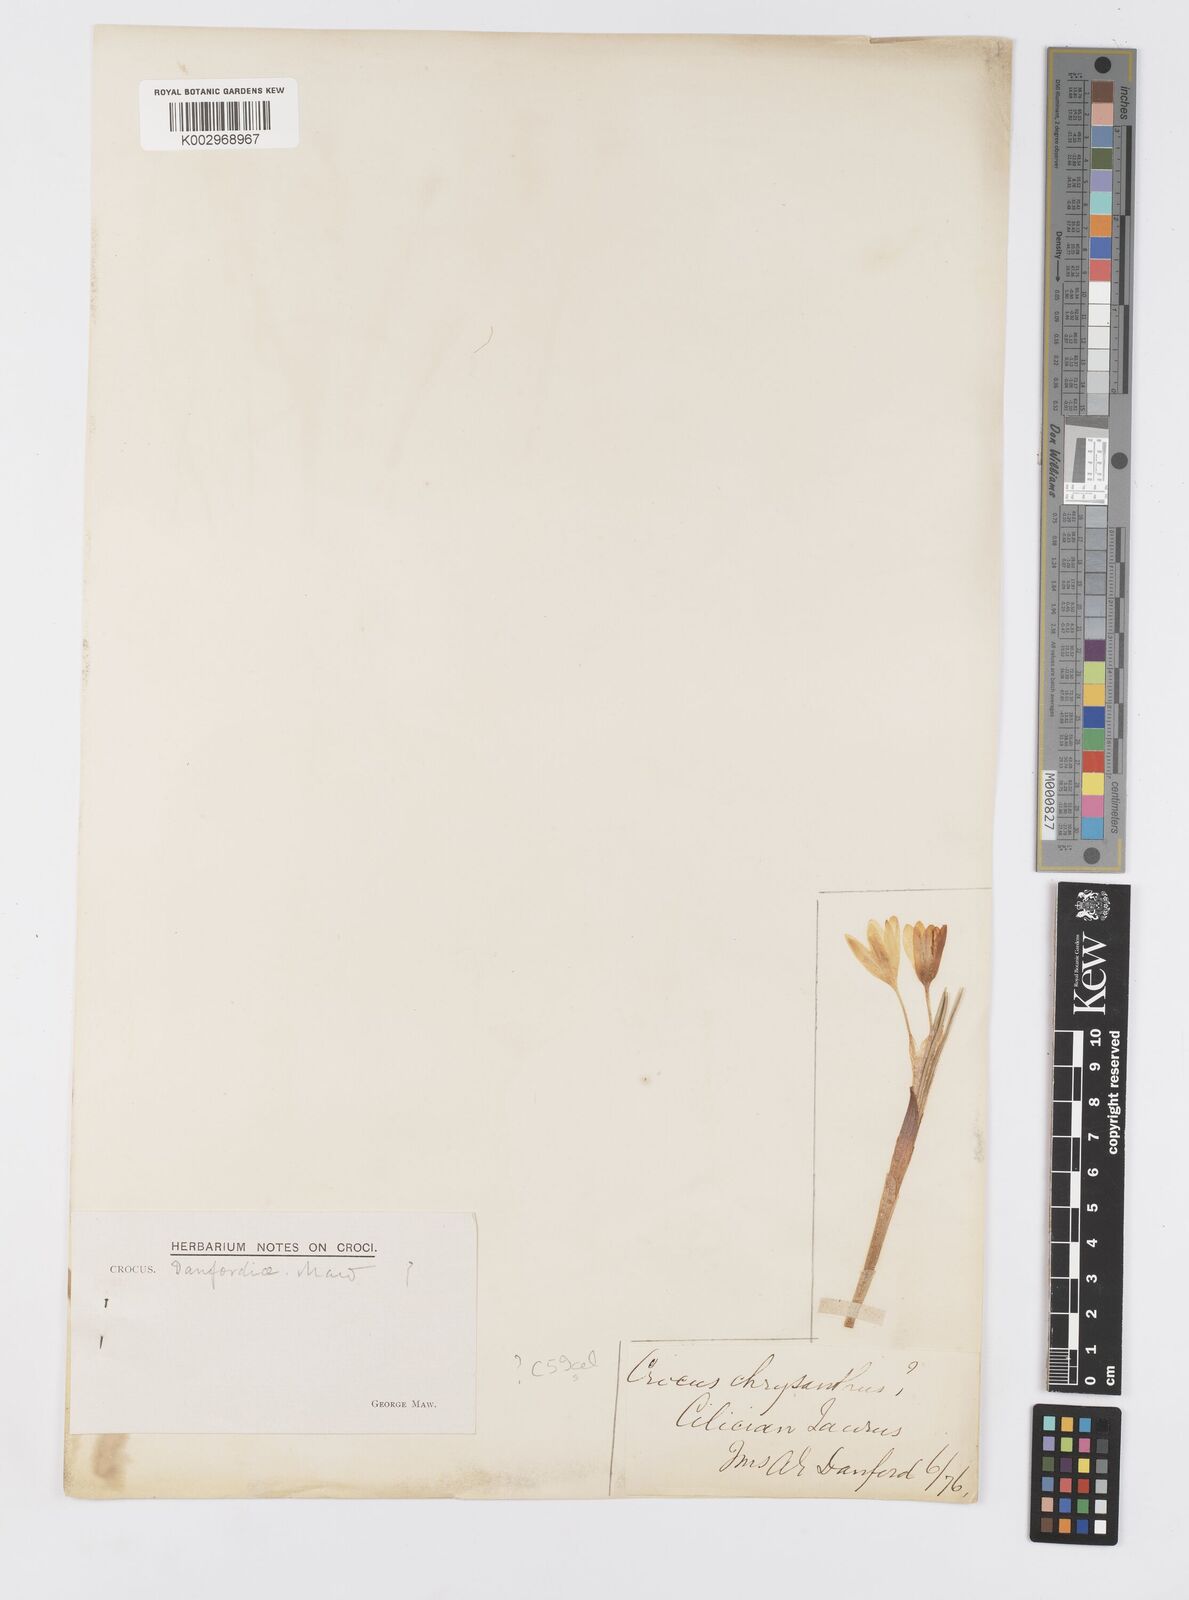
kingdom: Plantae
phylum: Tracheophyta
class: Liliopsida
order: Asparagales
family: Iridaceae
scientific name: Iridaceae
